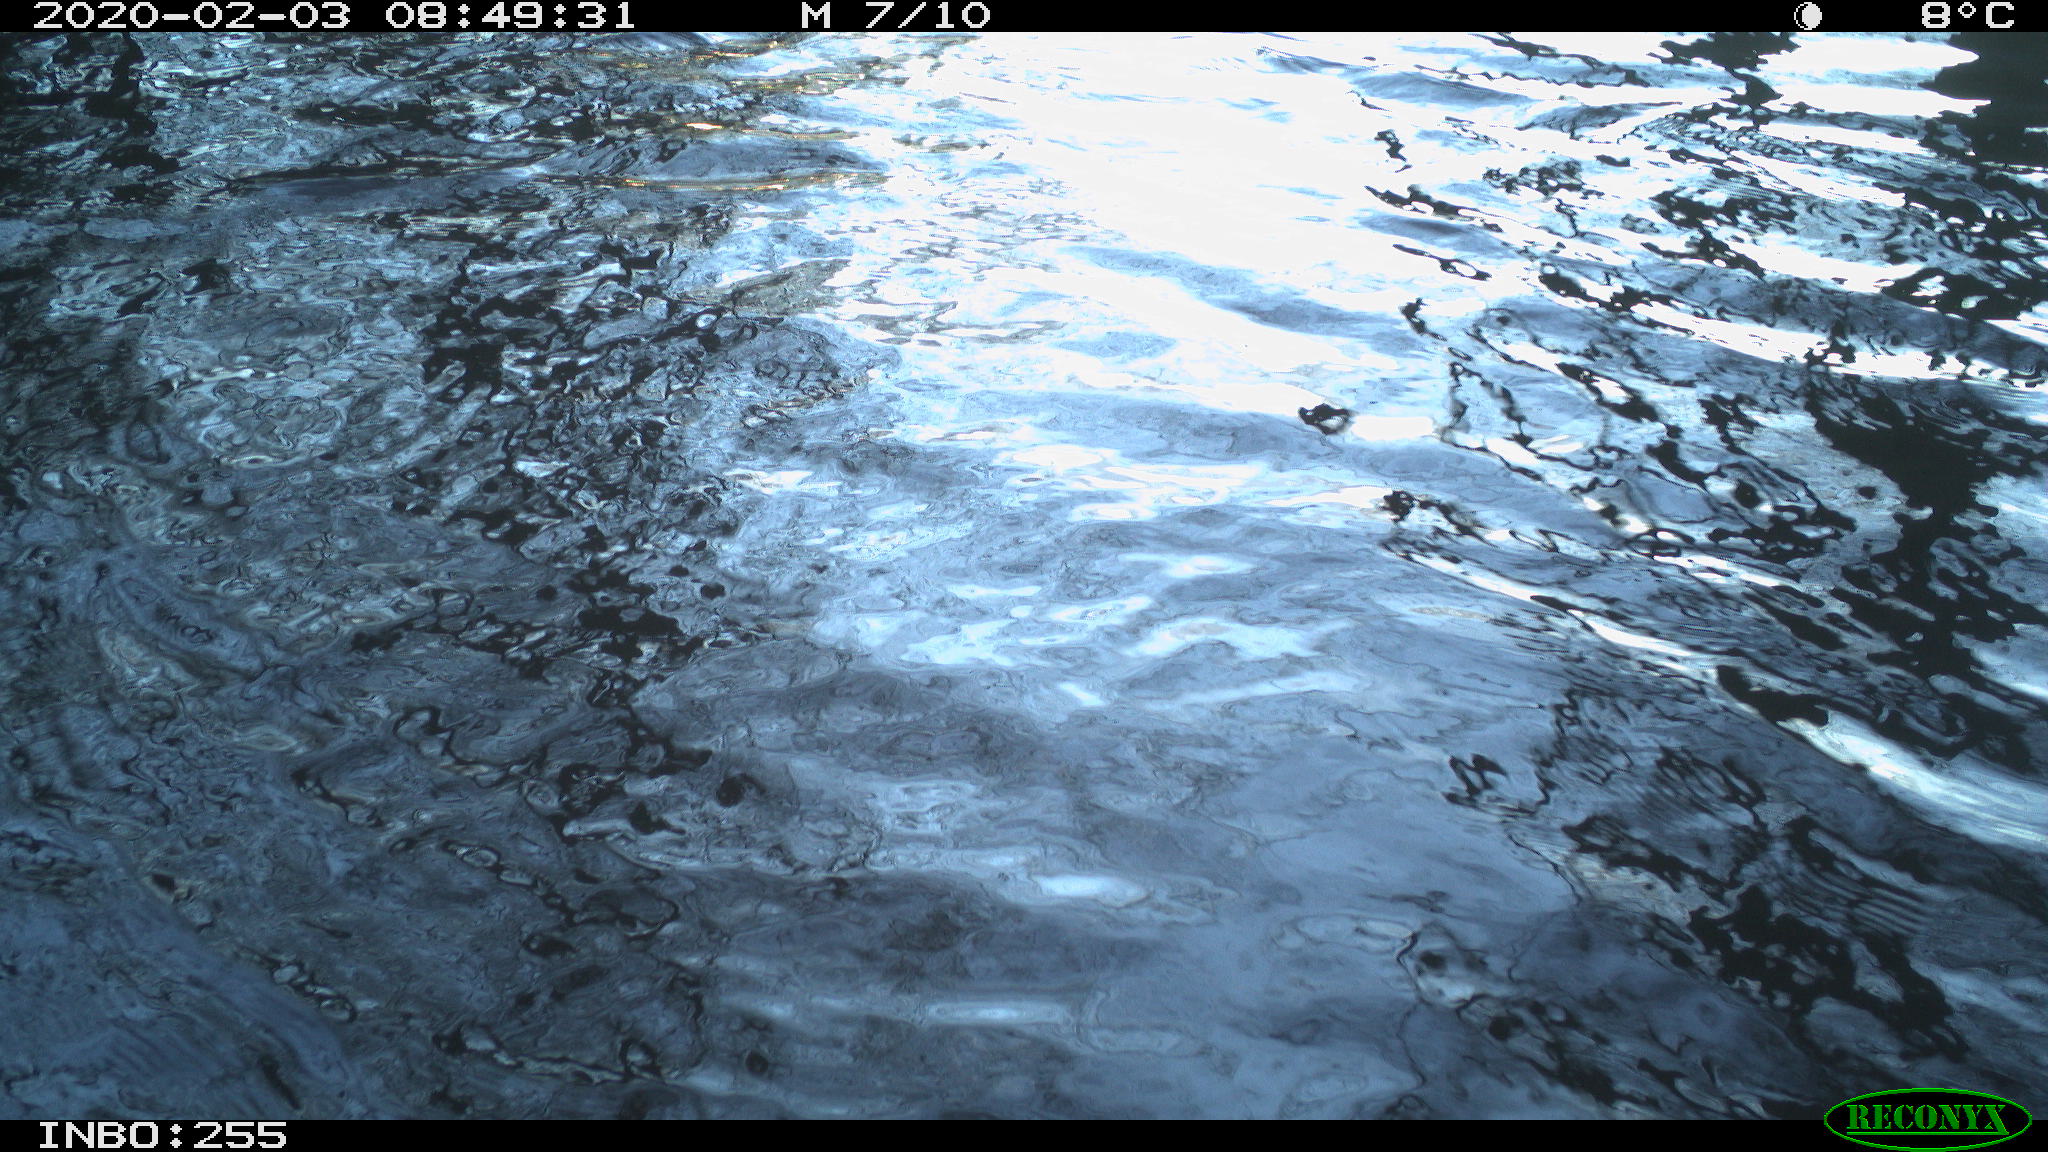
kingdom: Animalia
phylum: Chordata
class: Aves
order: Gruiformes
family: Rallidae
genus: Fulica
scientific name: Fulica atra
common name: Eurasian coot
